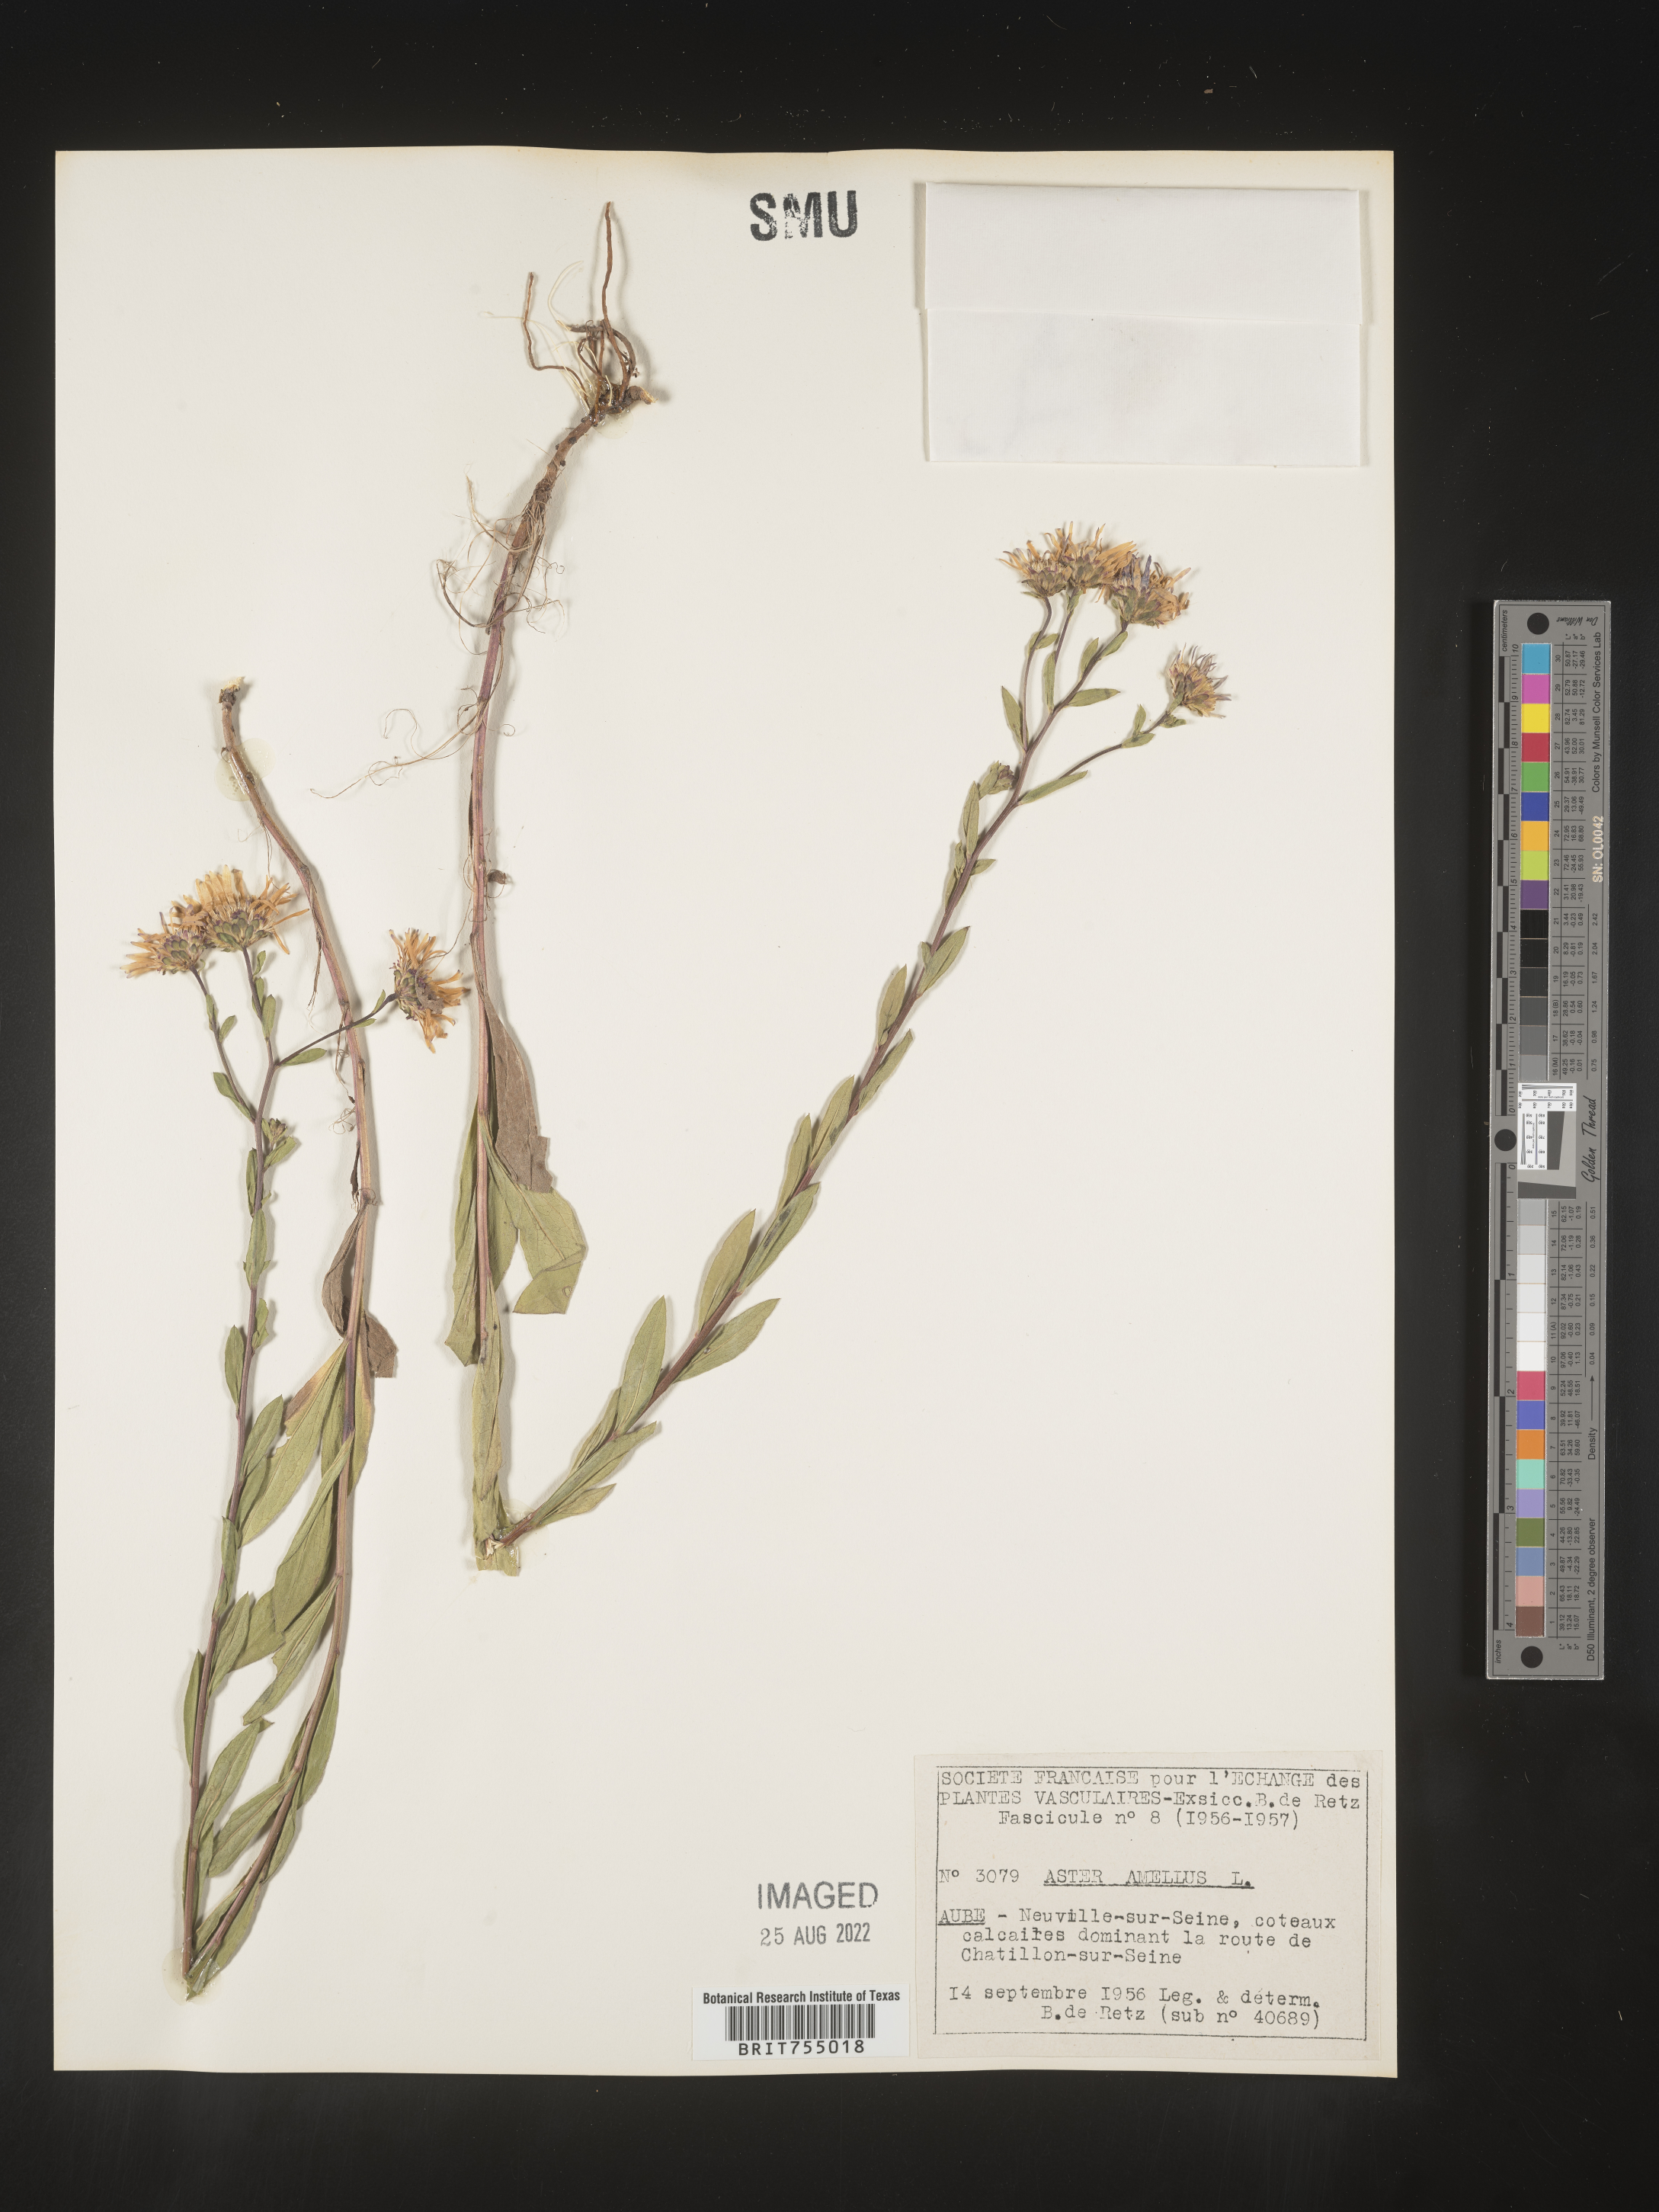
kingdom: Plantae
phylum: Tracheophyta
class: Magnoliopsida
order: Asterales
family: Asteraceae
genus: Symphyotrichum
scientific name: Symphyotrichum
